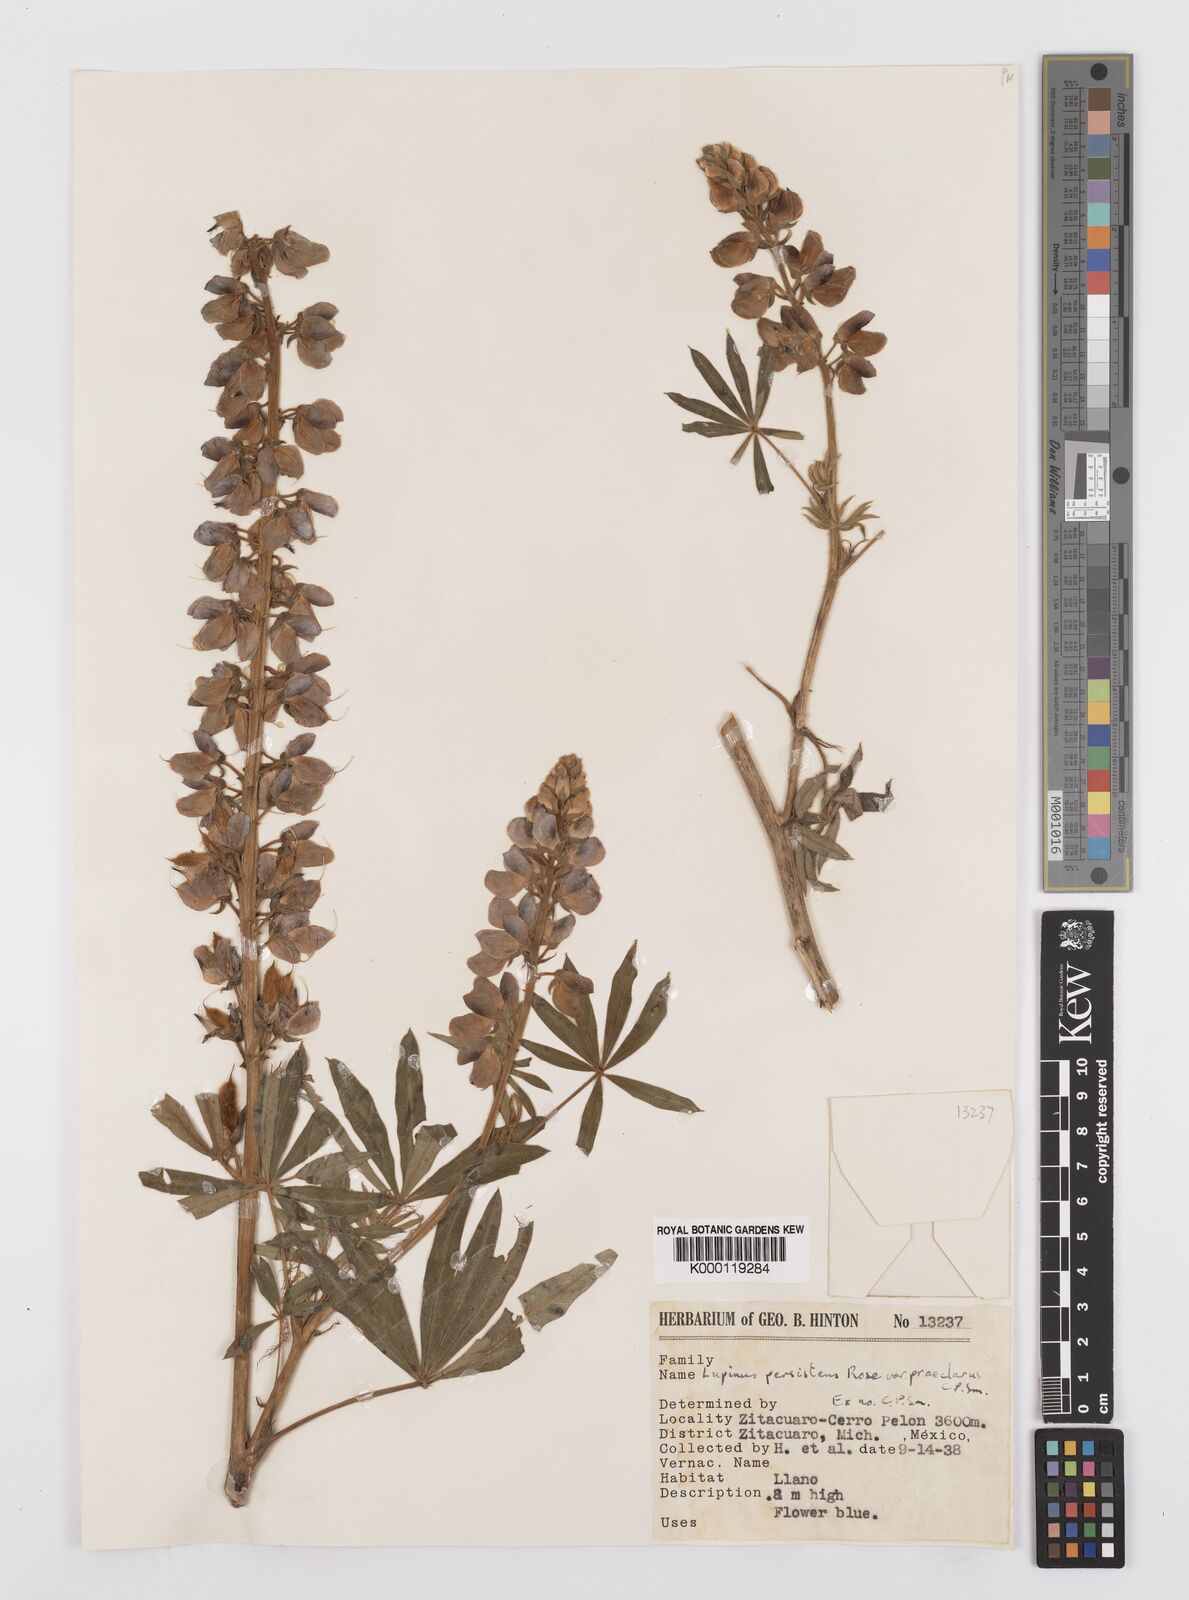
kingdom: Plantae
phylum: Tracheophyta
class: Magnoliopsida
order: Fabales
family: Fabaceae
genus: Lupinus
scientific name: Lupinus persistens
